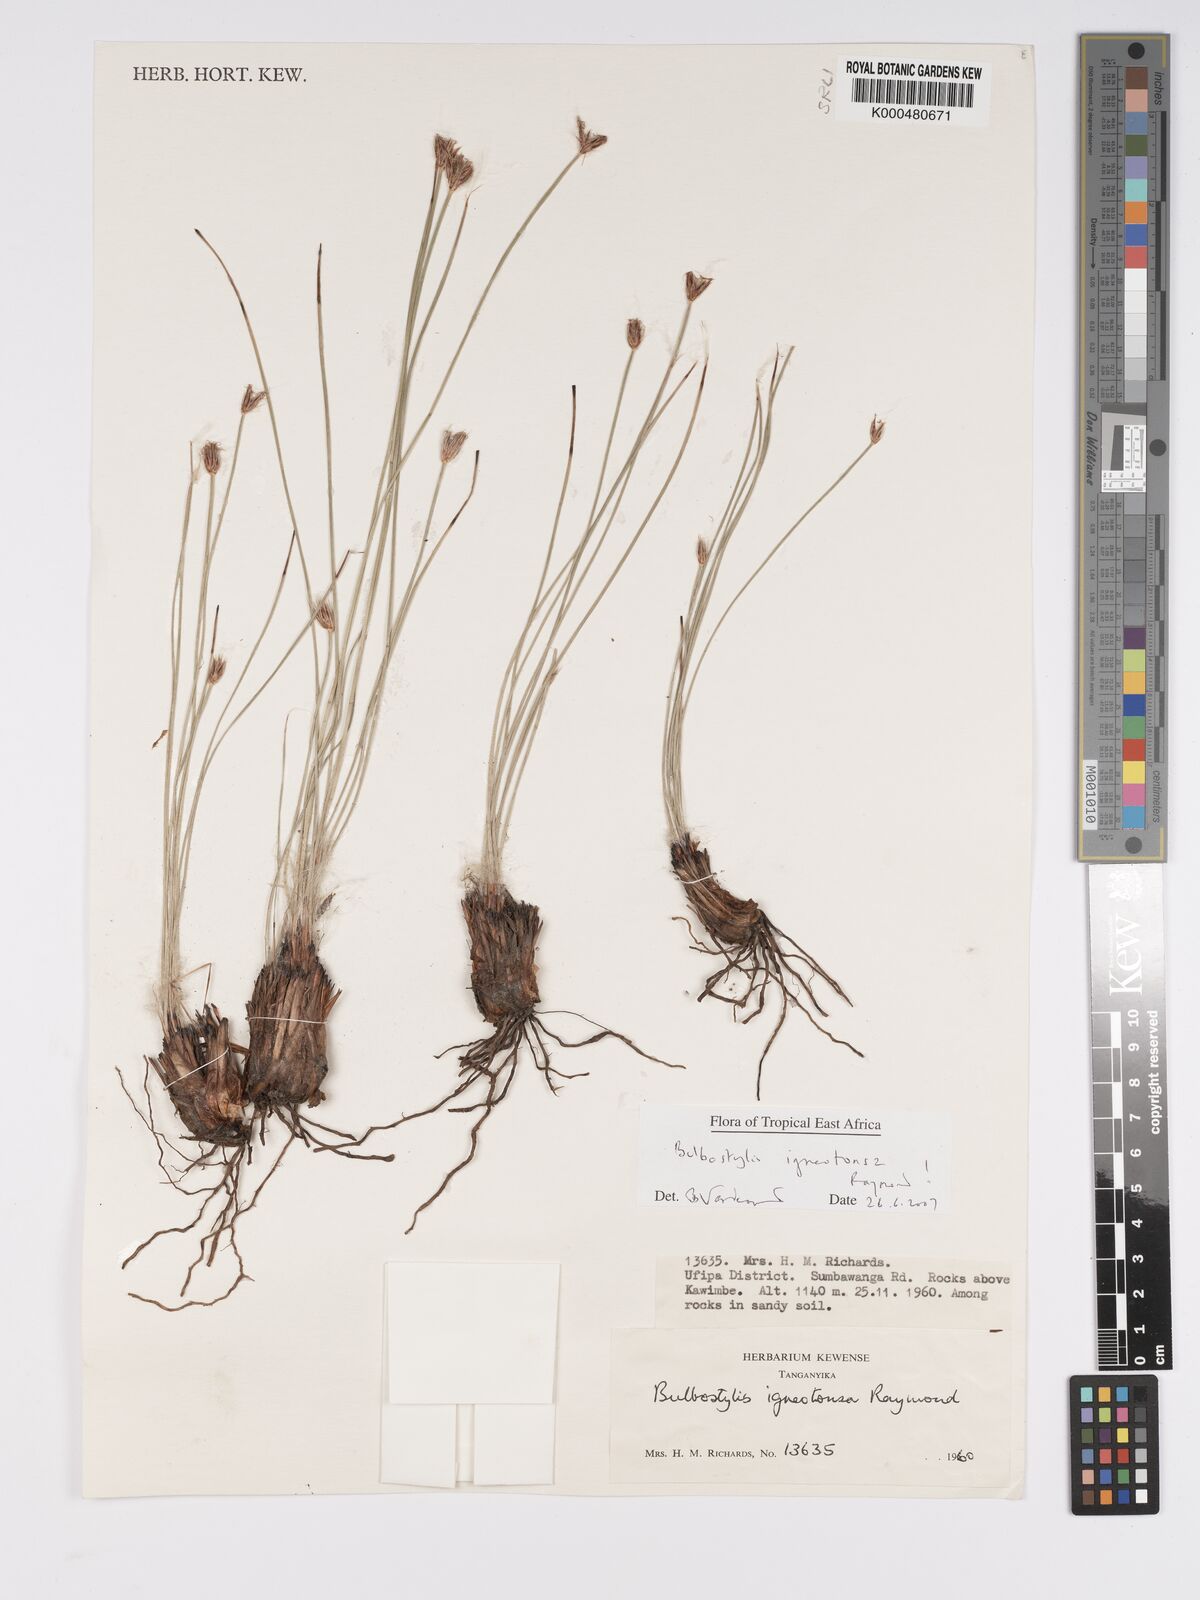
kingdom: Plantae
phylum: Tracheophyta
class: Liliopsida
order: Poales
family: Cyperaceae
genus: Bulbostylis
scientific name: Bulbostylis igneotonsa
